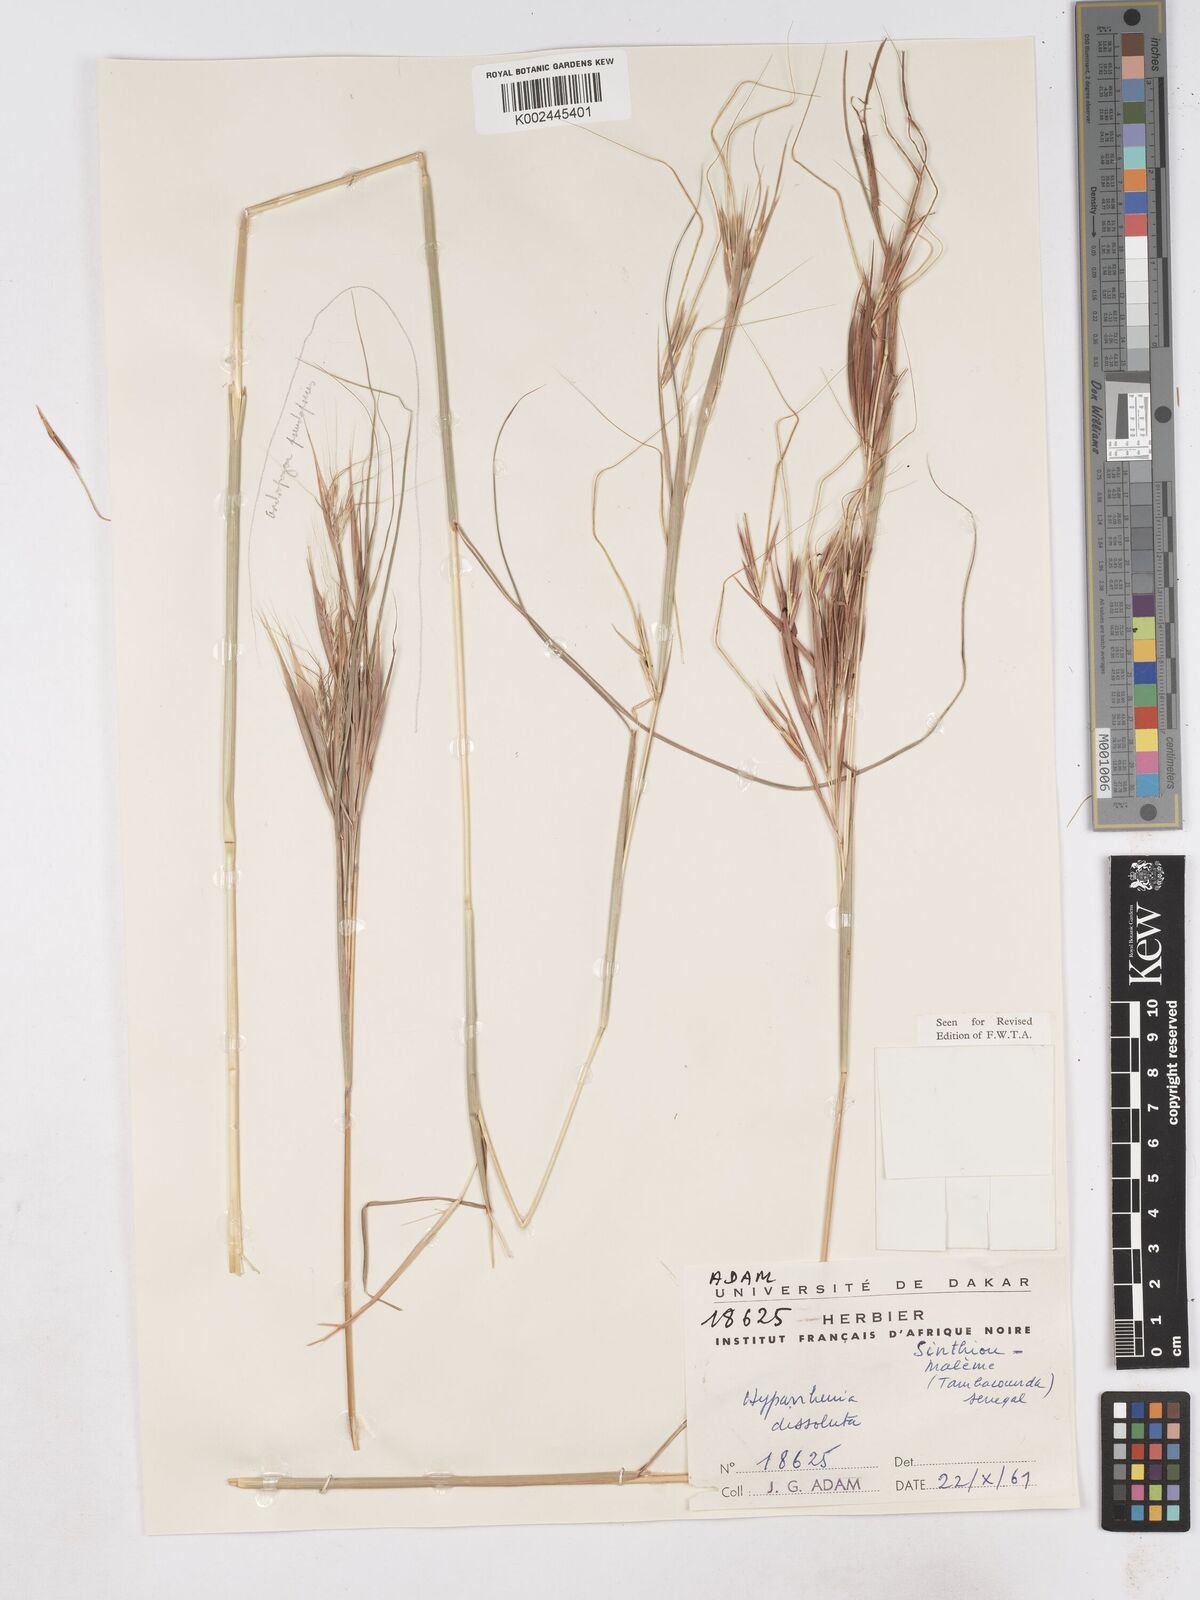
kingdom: Plantae
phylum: Tracheophyta
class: Liliopsida
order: Poales
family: Poaceae
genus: Hyperthelia
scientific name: Hyperthelia dissoluta
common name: Yellow thatching grass
